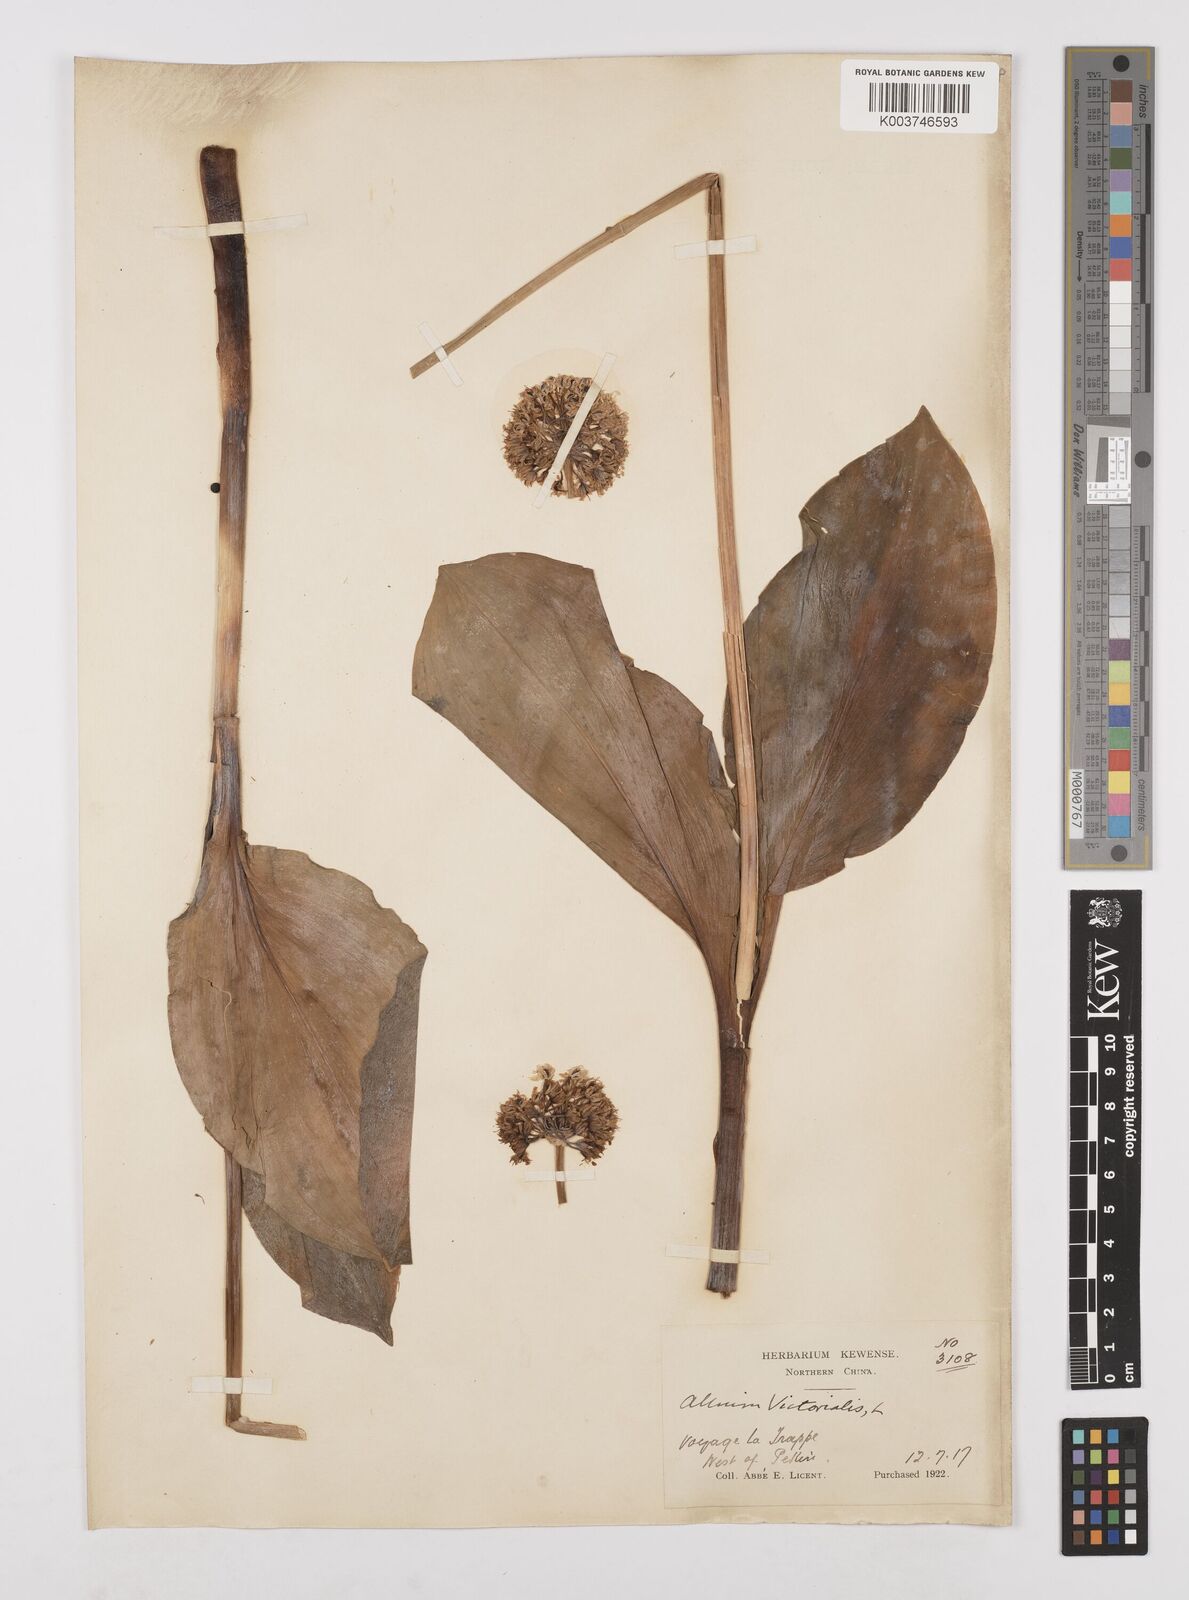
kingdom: Plantae
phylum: Tracheophyta
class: Liliopsida
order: Asparagales
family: Amaryllidaceae
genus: Allium
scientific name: Allium victorialis
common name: Alpine leek
